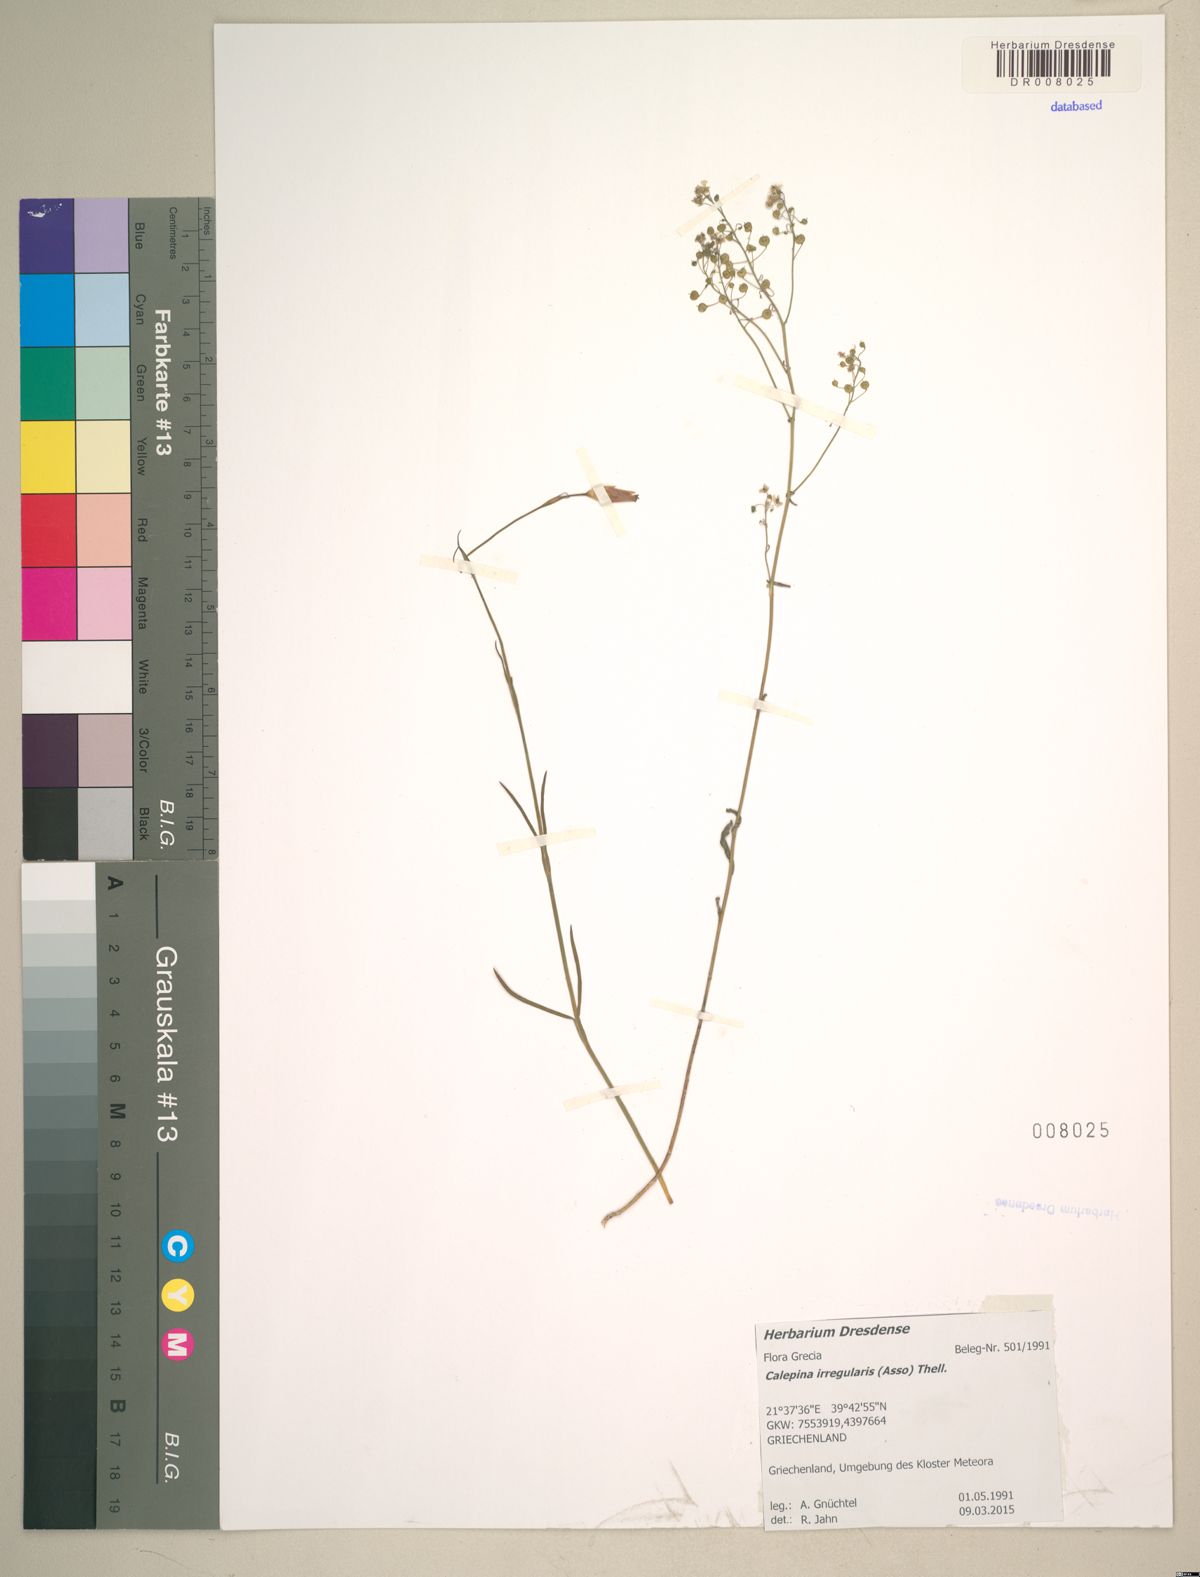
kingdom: Plantae
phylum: Tracheophyta
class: Magnoliopsida
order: Brassicales
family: Brassicaceae
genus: Calepina
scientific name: Calepina irregularis
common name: White ballmustard
